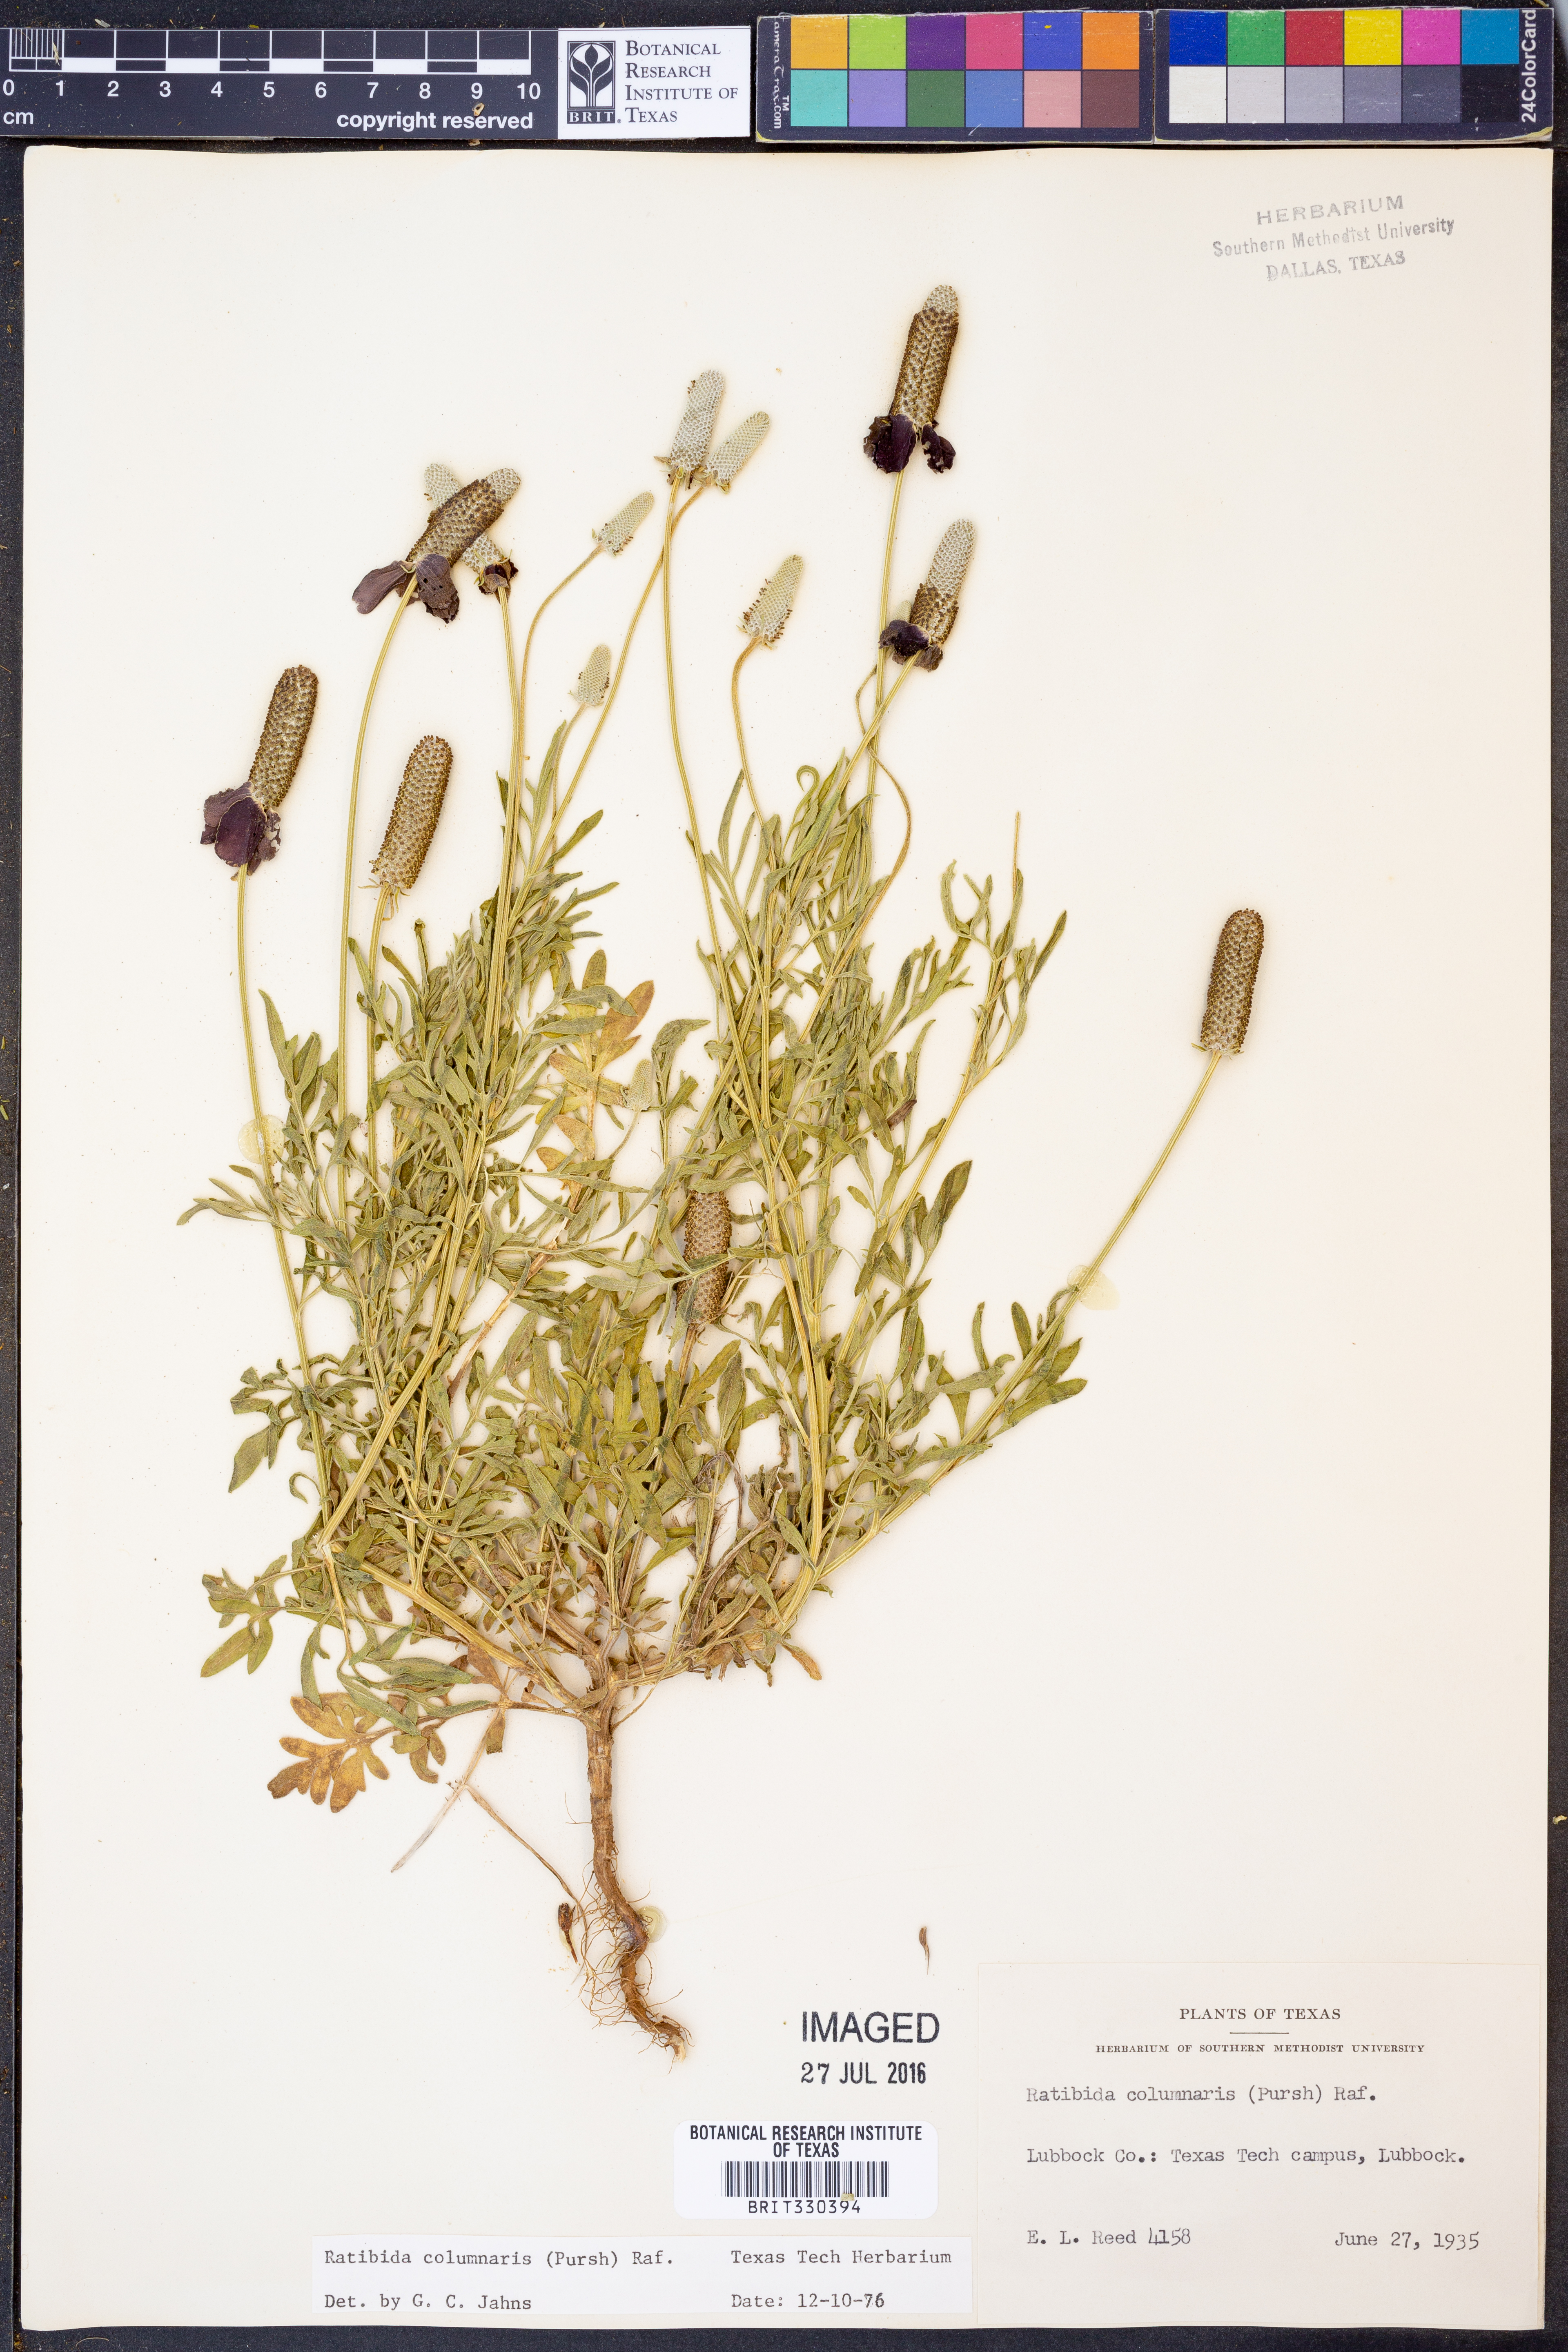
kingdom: Plantae
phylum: Tracheophyta
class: Magnoliopsida
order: Asterales
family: Asteraceae
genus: Ratibida
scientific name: Ratibida columnifera
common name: Prairie coneflower
